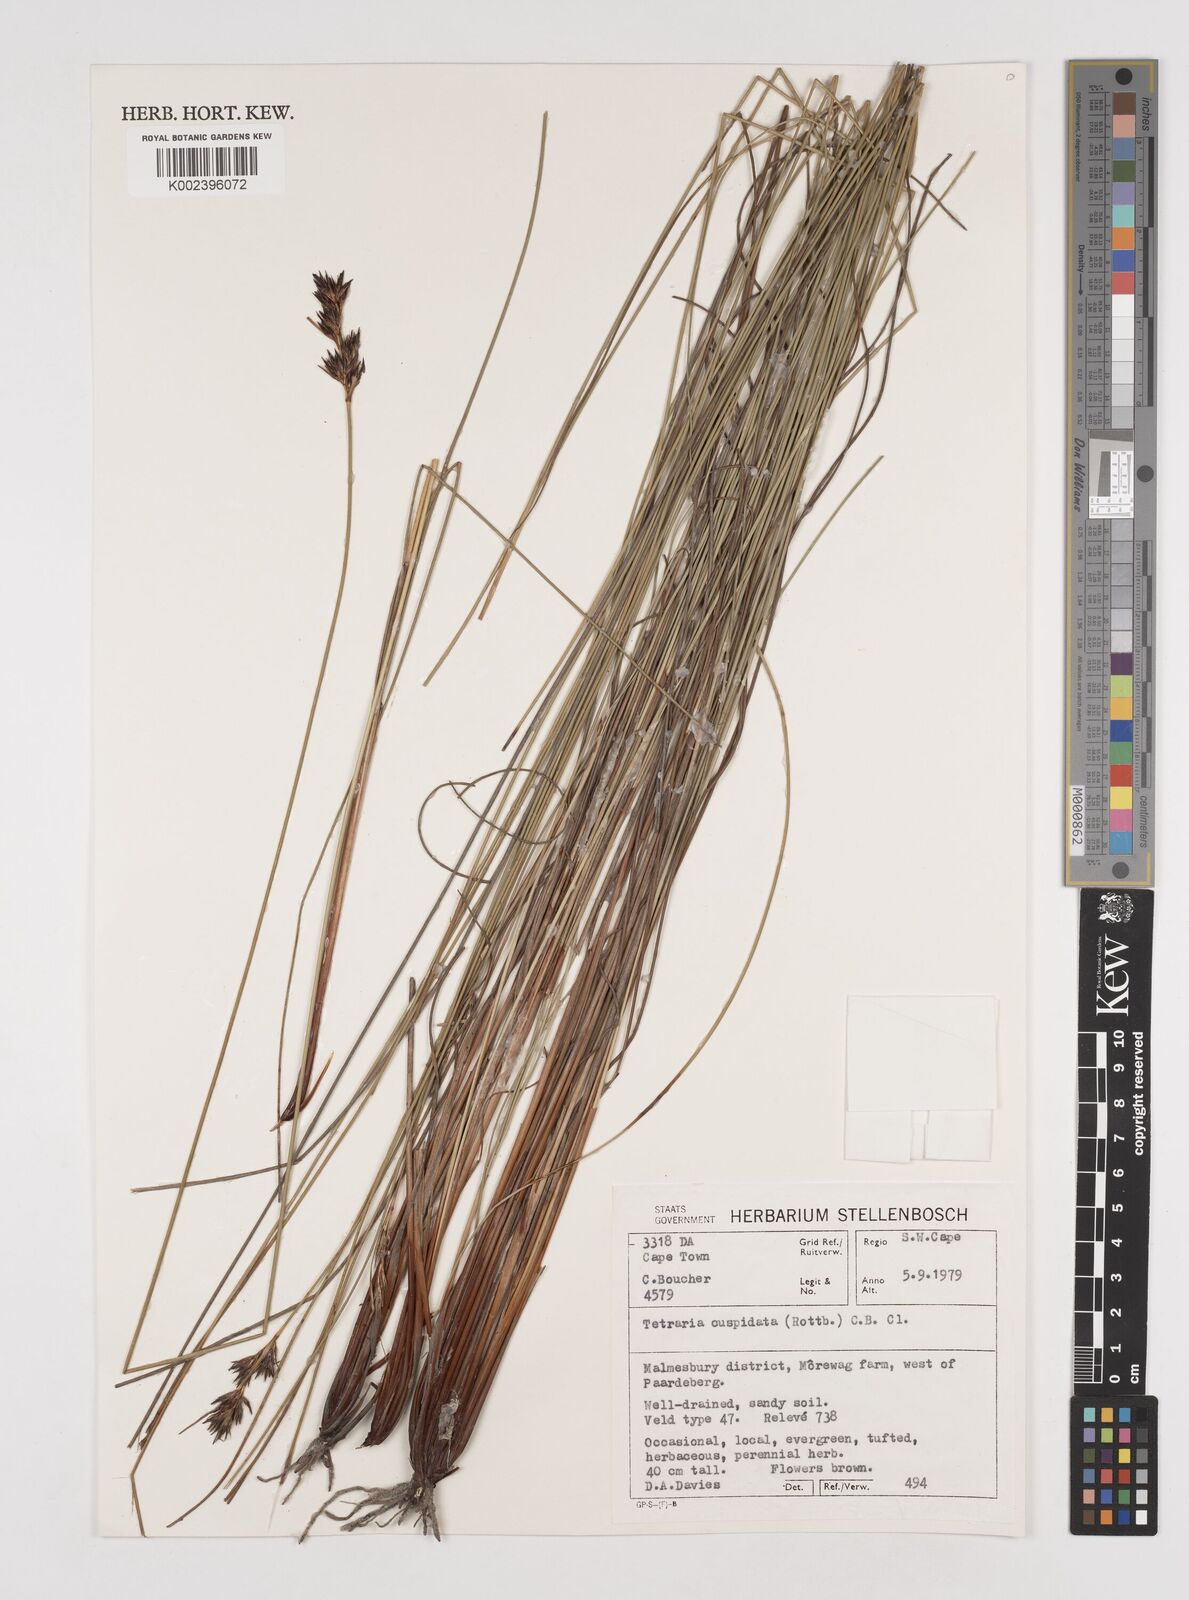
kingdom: Plantae
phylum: Tracheophyta
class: Liliopsida
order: Poales
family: Cyperaceae
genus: Schoenus
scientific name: Schoenus cuspidatus
